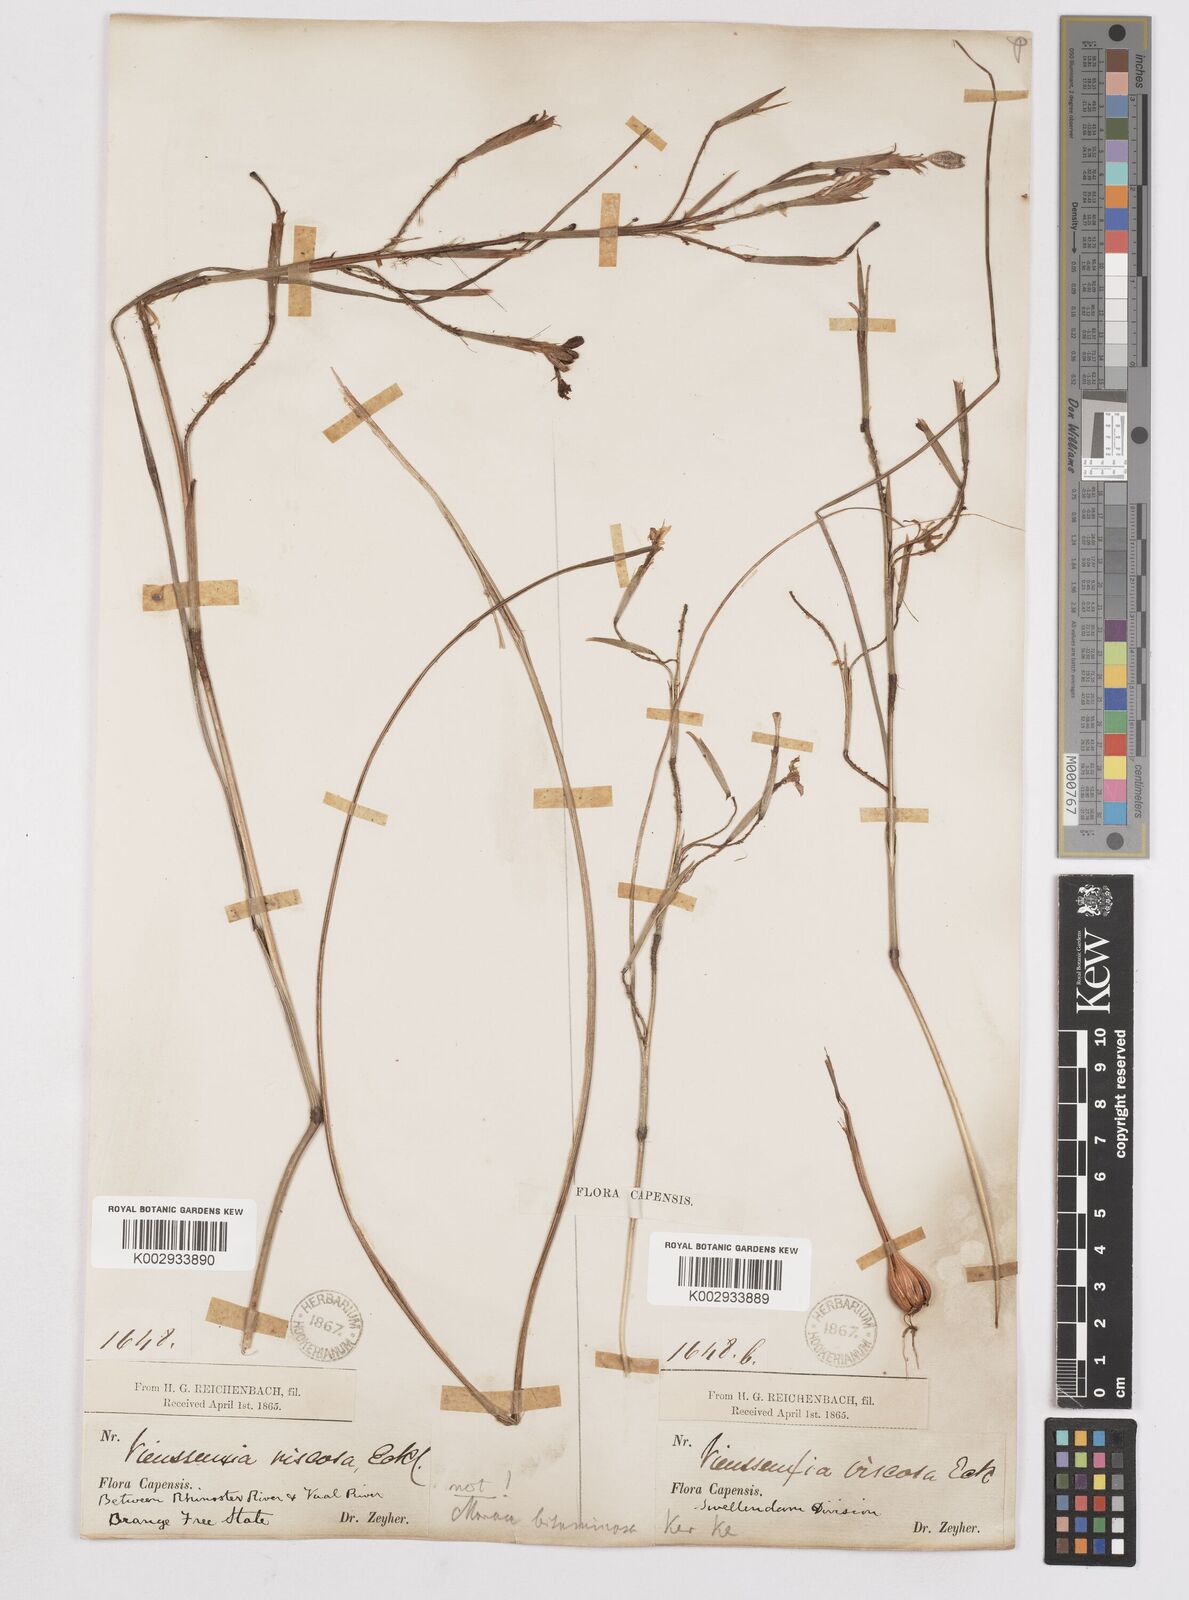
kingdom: Plantae
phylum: Tracheophyta
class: Liliopsida
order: Asparagales
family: Iridaceae
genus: Moraea
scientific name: Moraea viscaria
